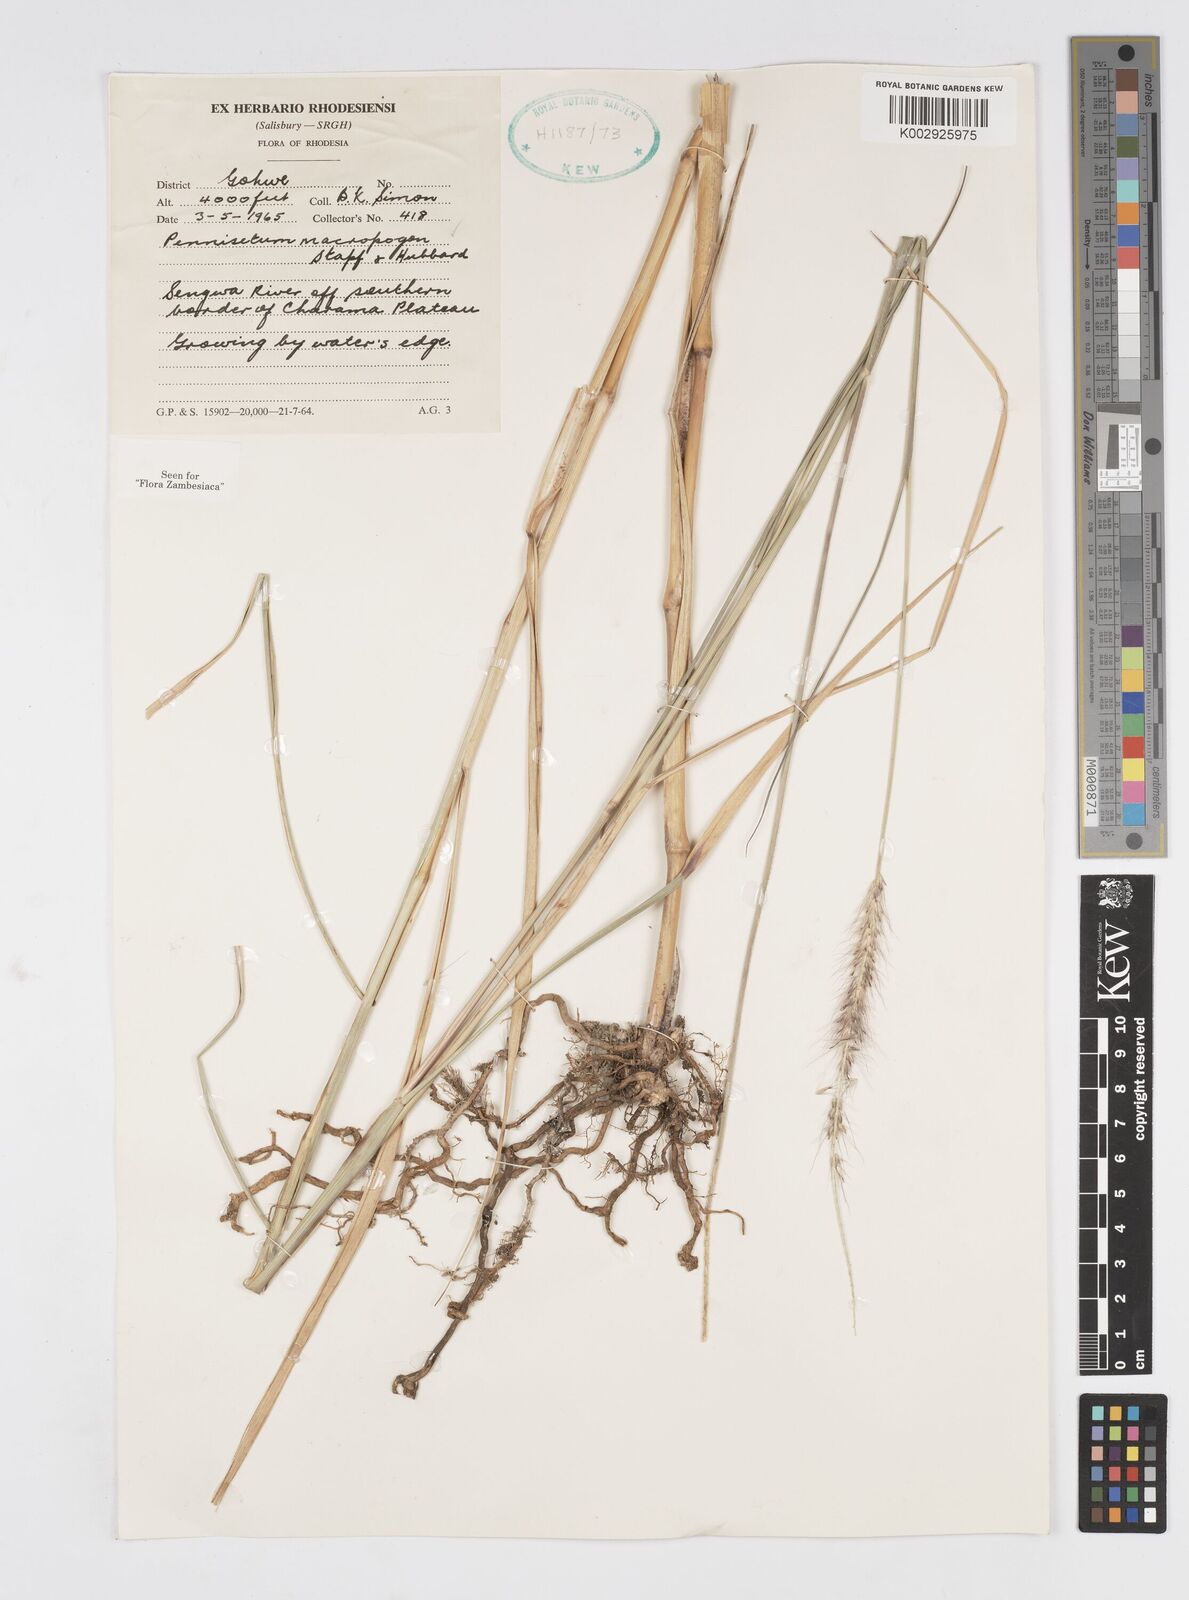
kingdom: Plantae
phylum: Tracheophyta
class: Liliopsida
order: Poales
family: Poaceae
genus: Cenchrus
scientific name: Cenchrus caudatus
